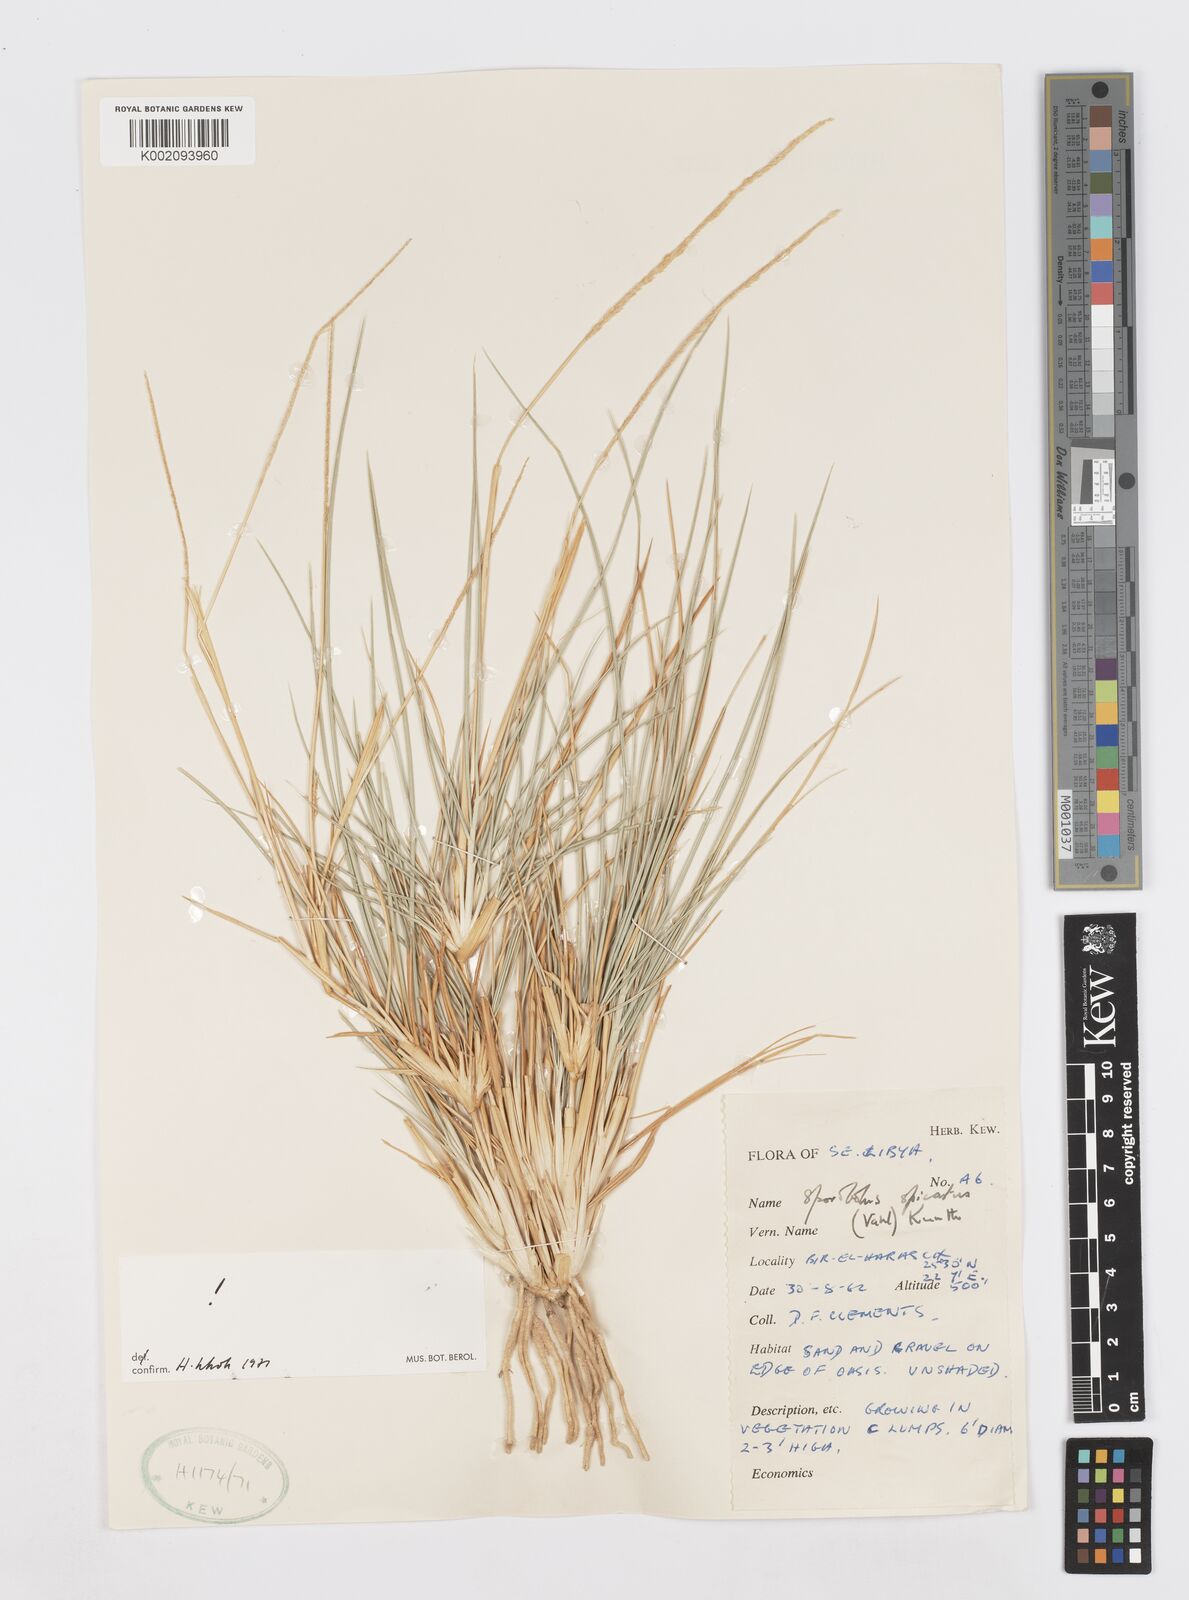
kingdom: Plantae
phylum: Tracheophyta
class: Liliopsida
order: Poales
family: Poaceae
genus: Sporobolus
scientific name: Sporobolus spicatus
